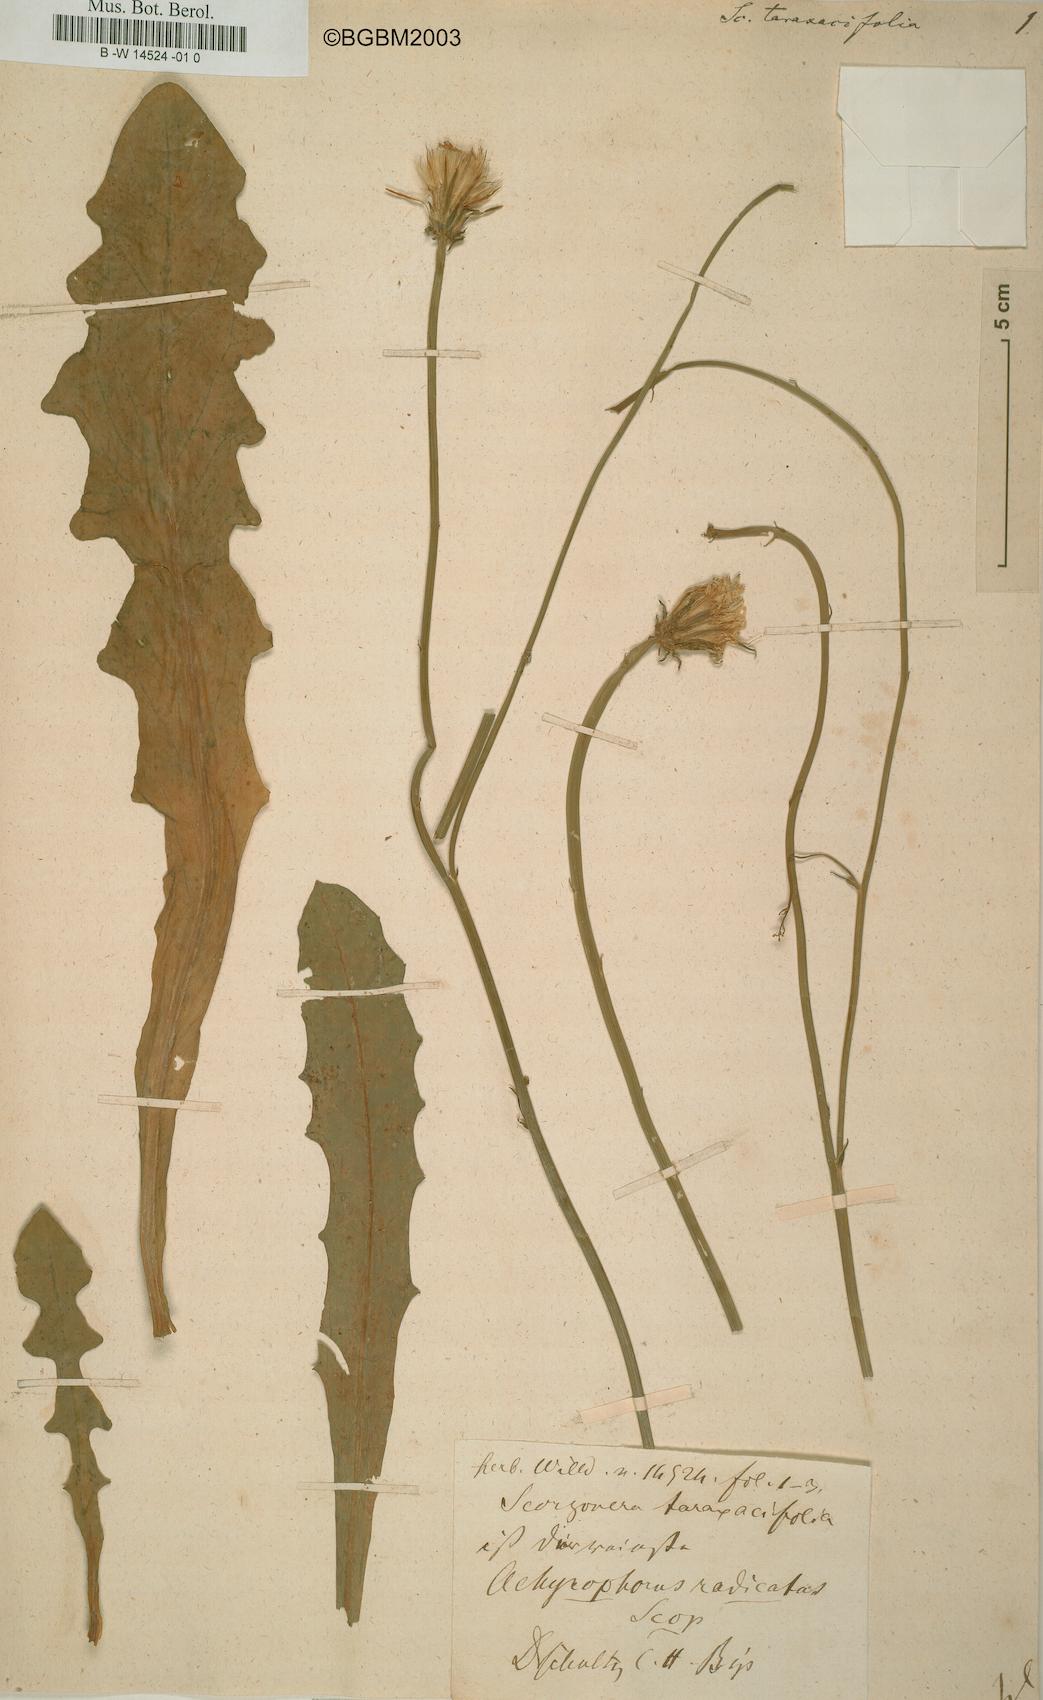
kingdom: Plantae
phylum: Tracheophyta
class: Magnoliopsida
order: Asterales
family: Asteraceae
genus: Hypochaeris
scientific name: Hypochaeris glabra
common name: Smooth catsear
